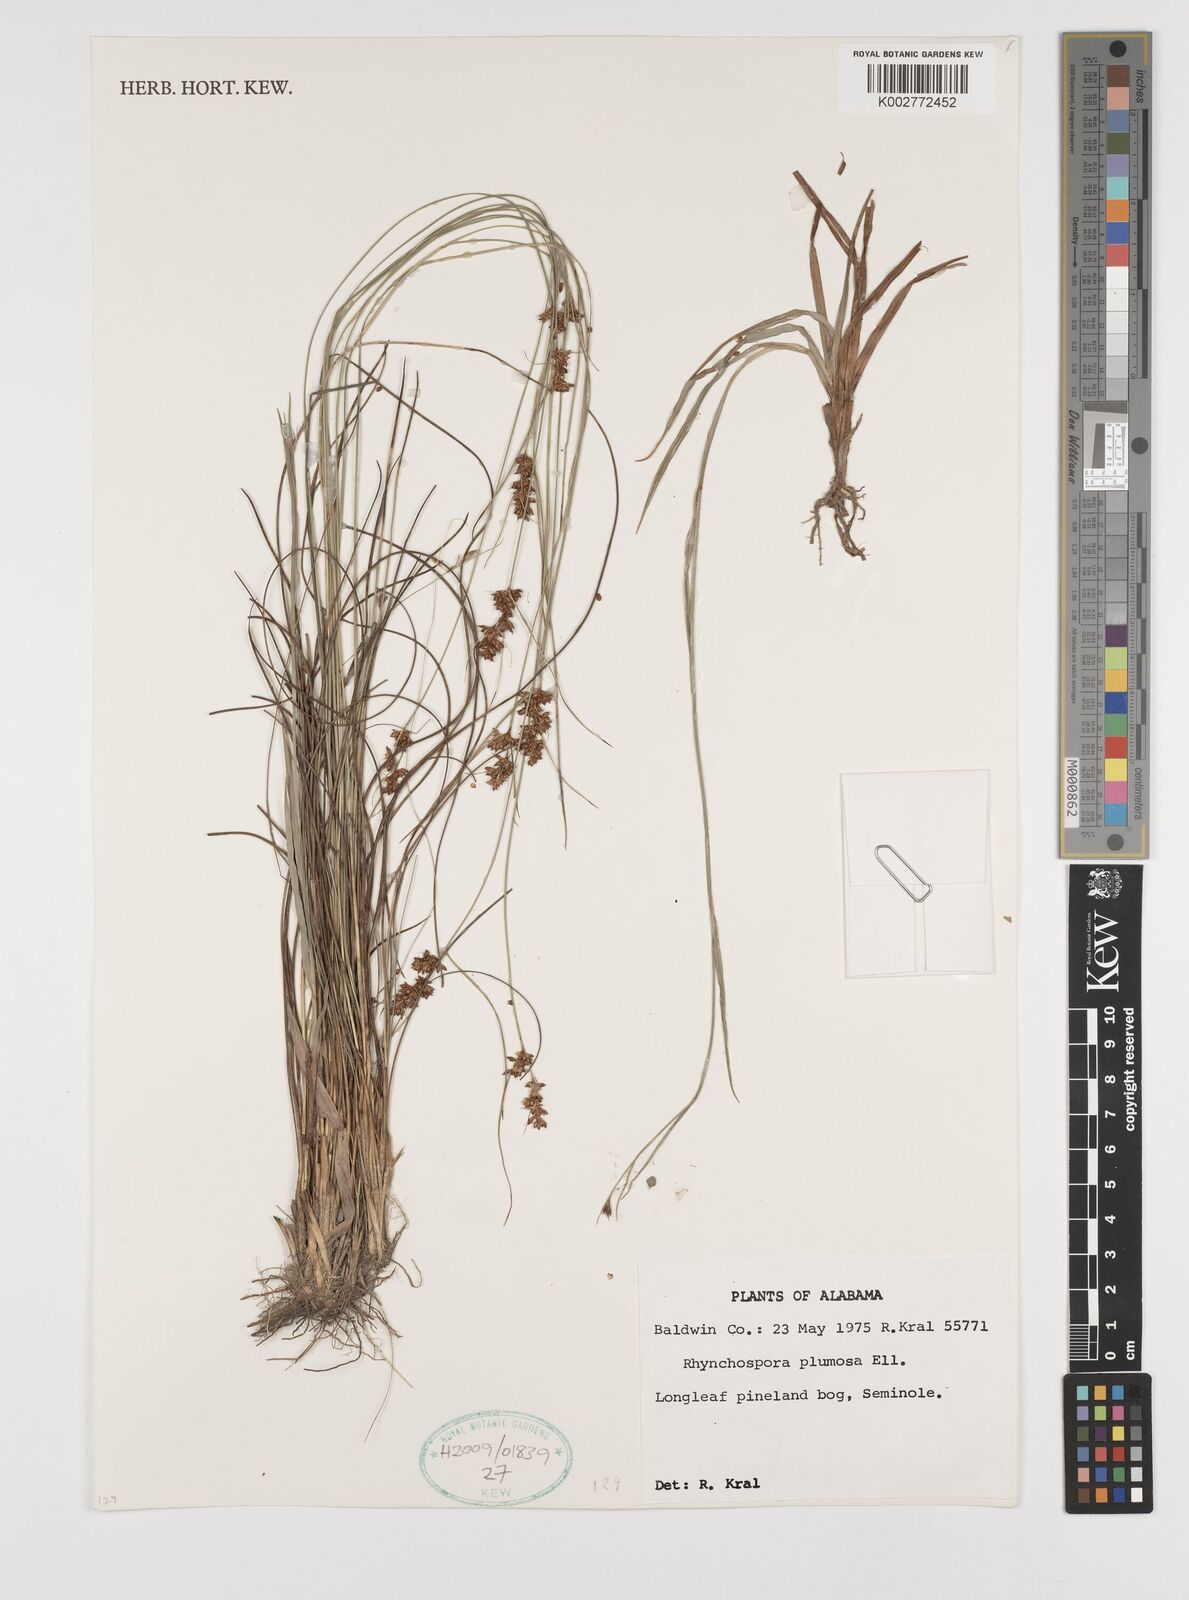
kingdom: Plantae
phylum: Tracheophyta
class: Liliopsida
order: Poales
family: Cyperaceae
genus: Rhynchospora
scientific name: Rhynchospora plumosa
